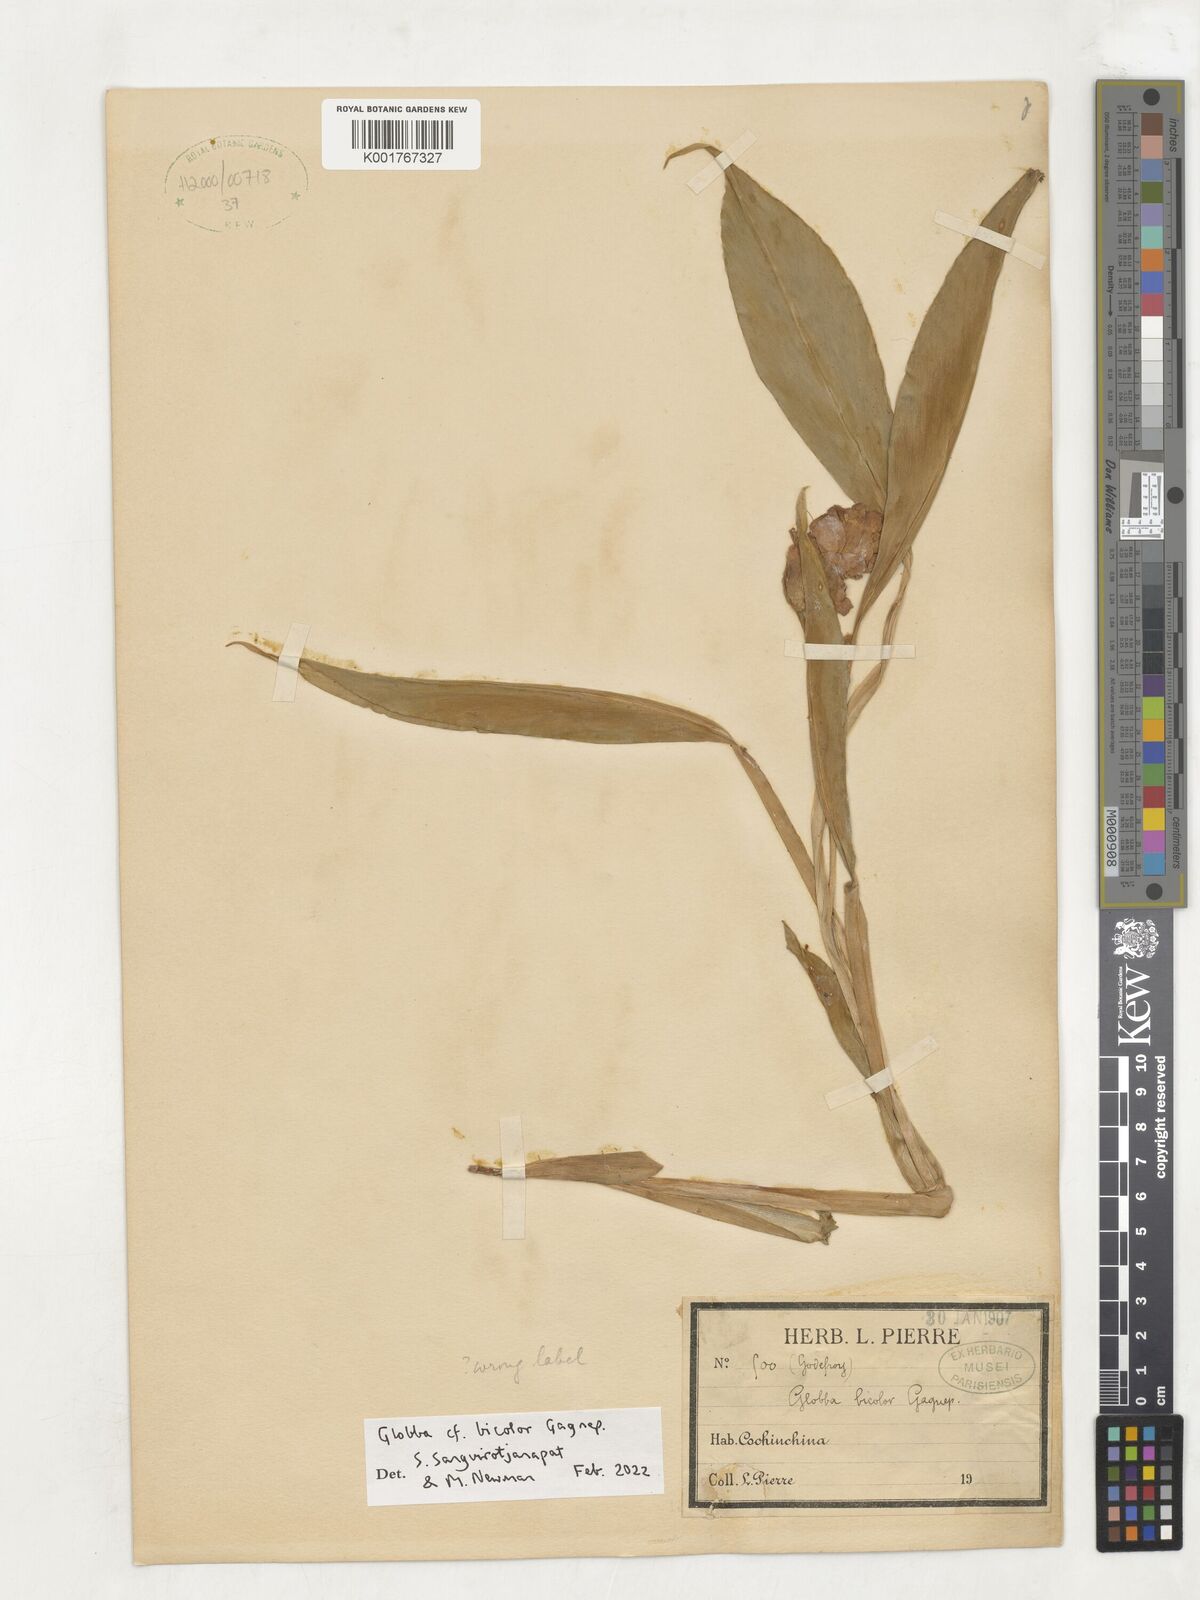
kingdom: Plantae
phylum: Tracheophyta
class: Liliopsida
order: Zingiberales
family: Zingiberaceae
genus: Globba
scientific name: Globba bicolor
